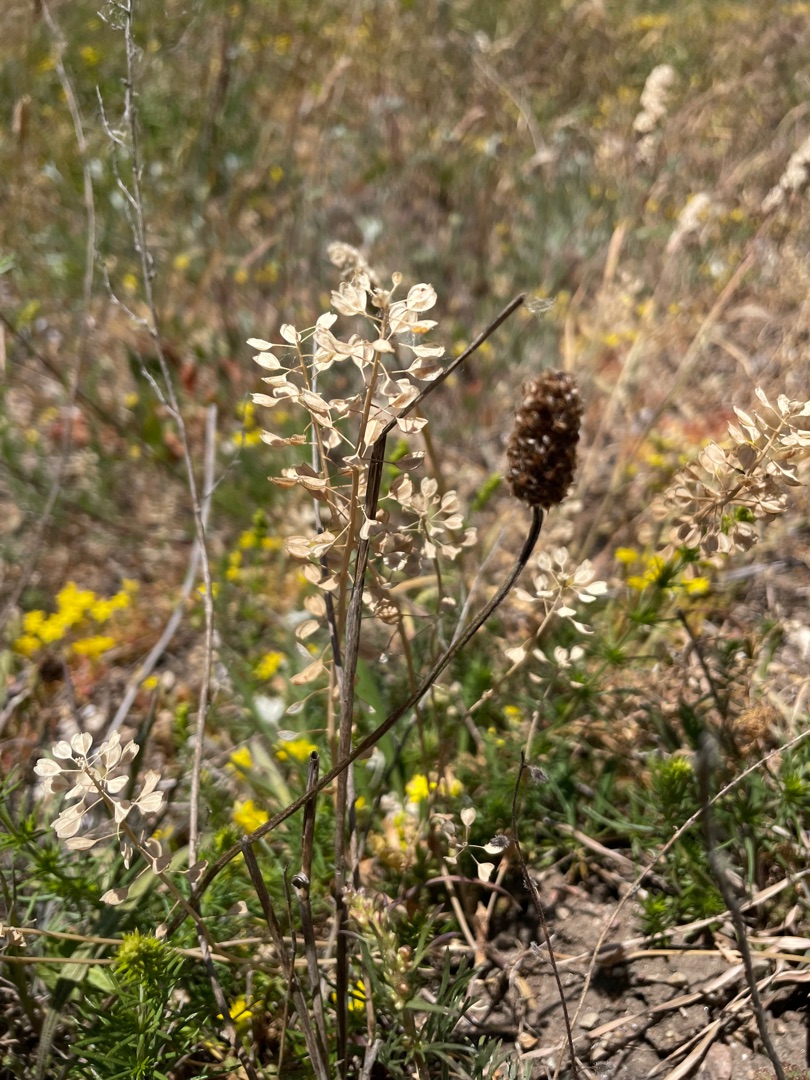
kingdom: Plantae
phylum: Tracheophyta
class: Magnoliopsida
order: Brassicales
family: Brassicaceae
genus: Noccaea
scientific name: Noccaea perfoliata
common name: Hjertebladet pengeurt
